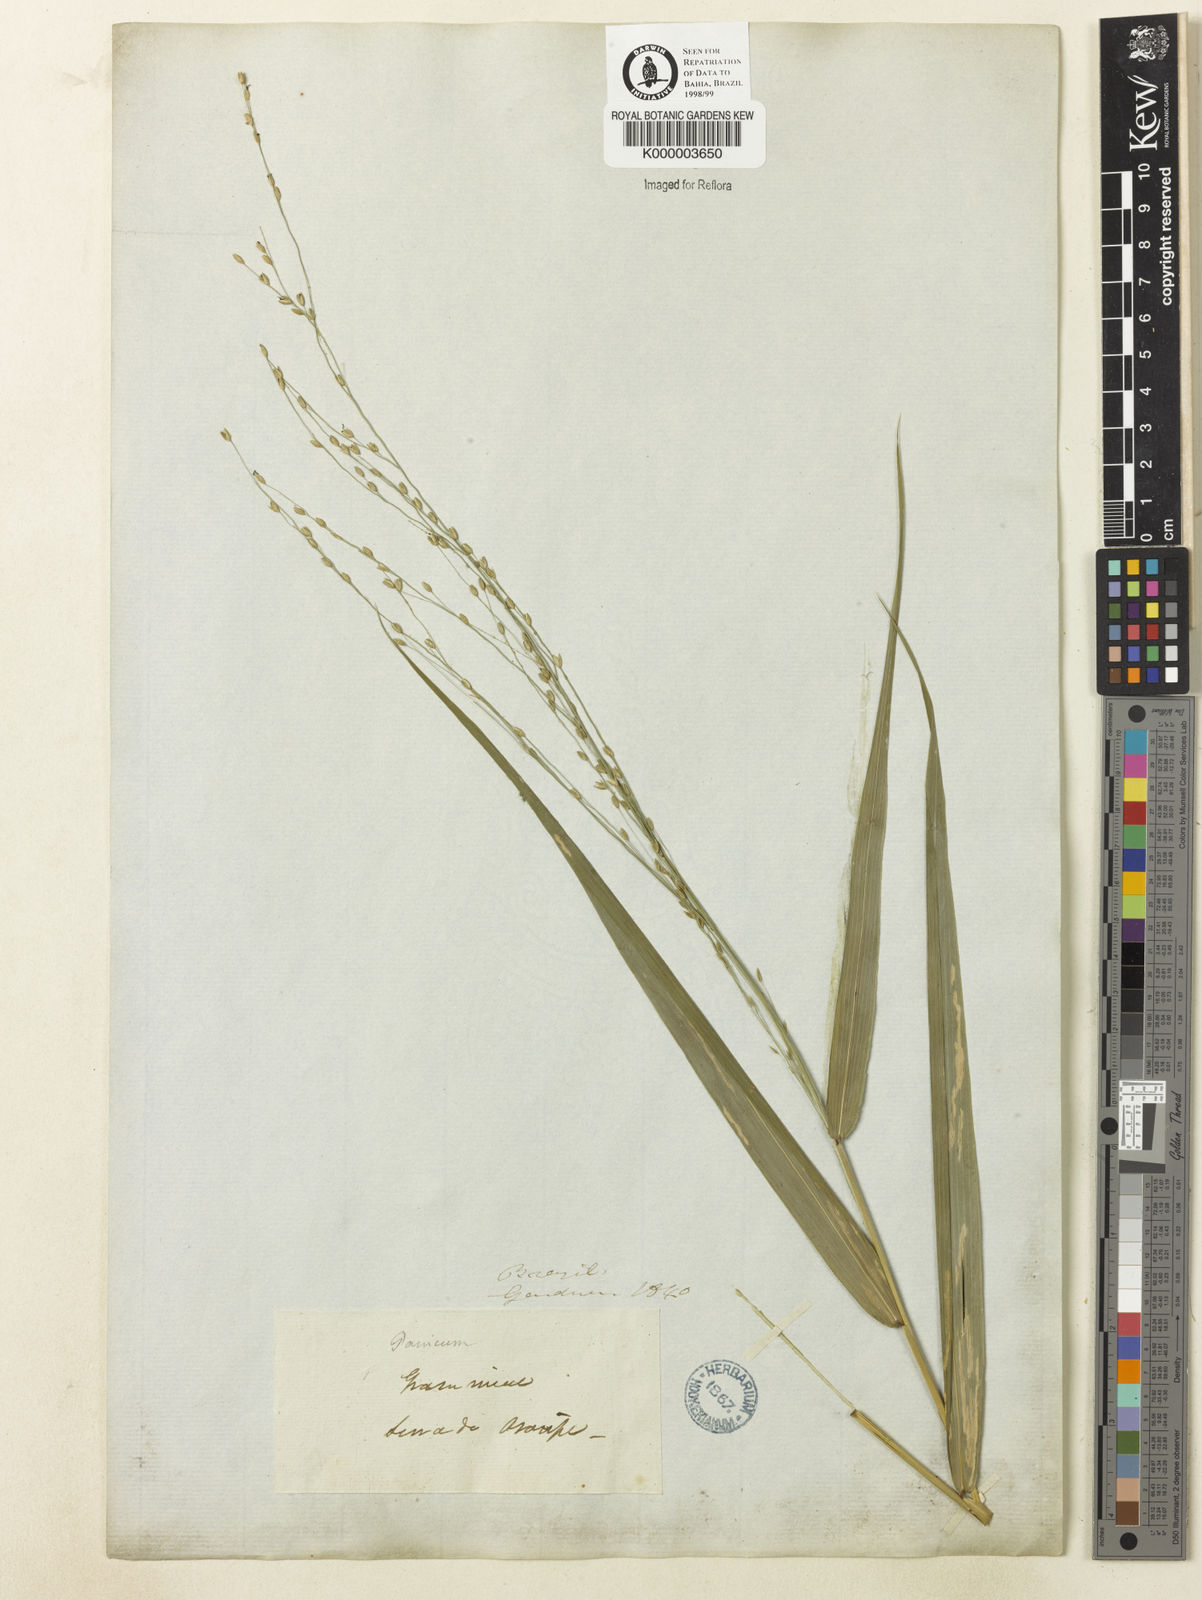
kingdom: Plantae
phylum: Tracheophyta
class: Liliopsida
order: Poales
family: Poaceae
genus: Lasiacis
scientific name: Lasiacis maculata
